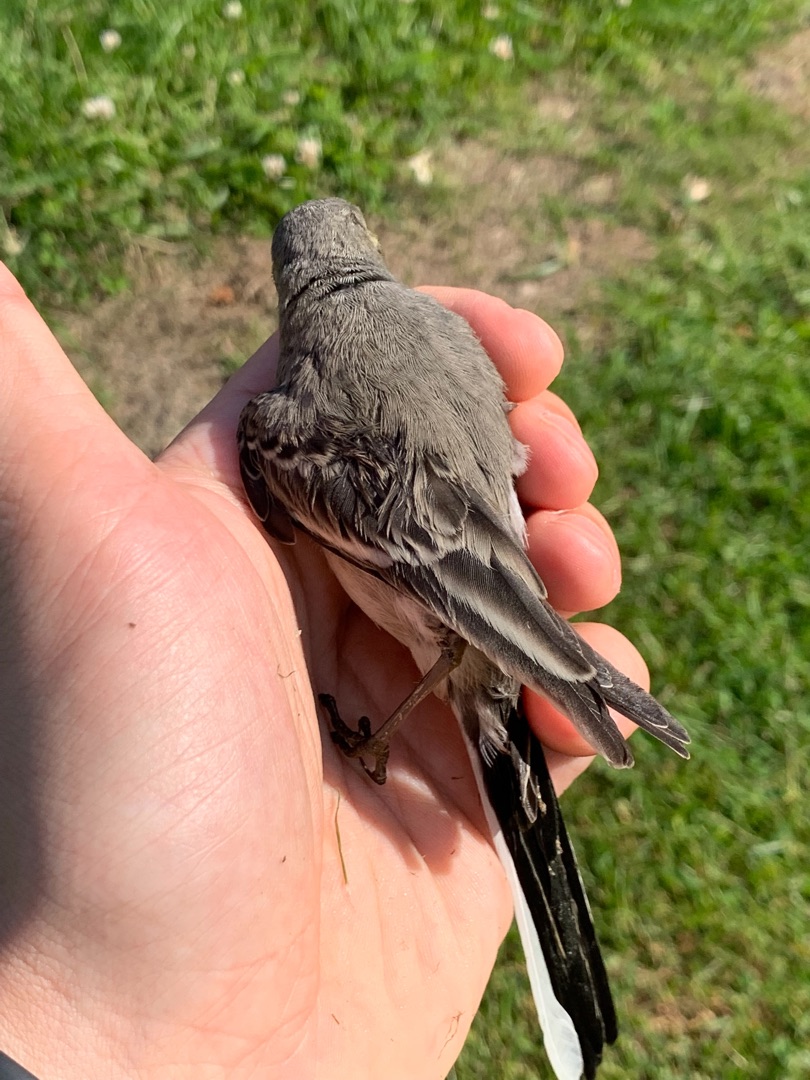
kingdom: Animalia
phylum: Chordata
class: Aves
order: Passeriformes
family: Motacillidae
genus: Motacilla
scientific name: Motacilla alba
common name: Hvid vipstjert
